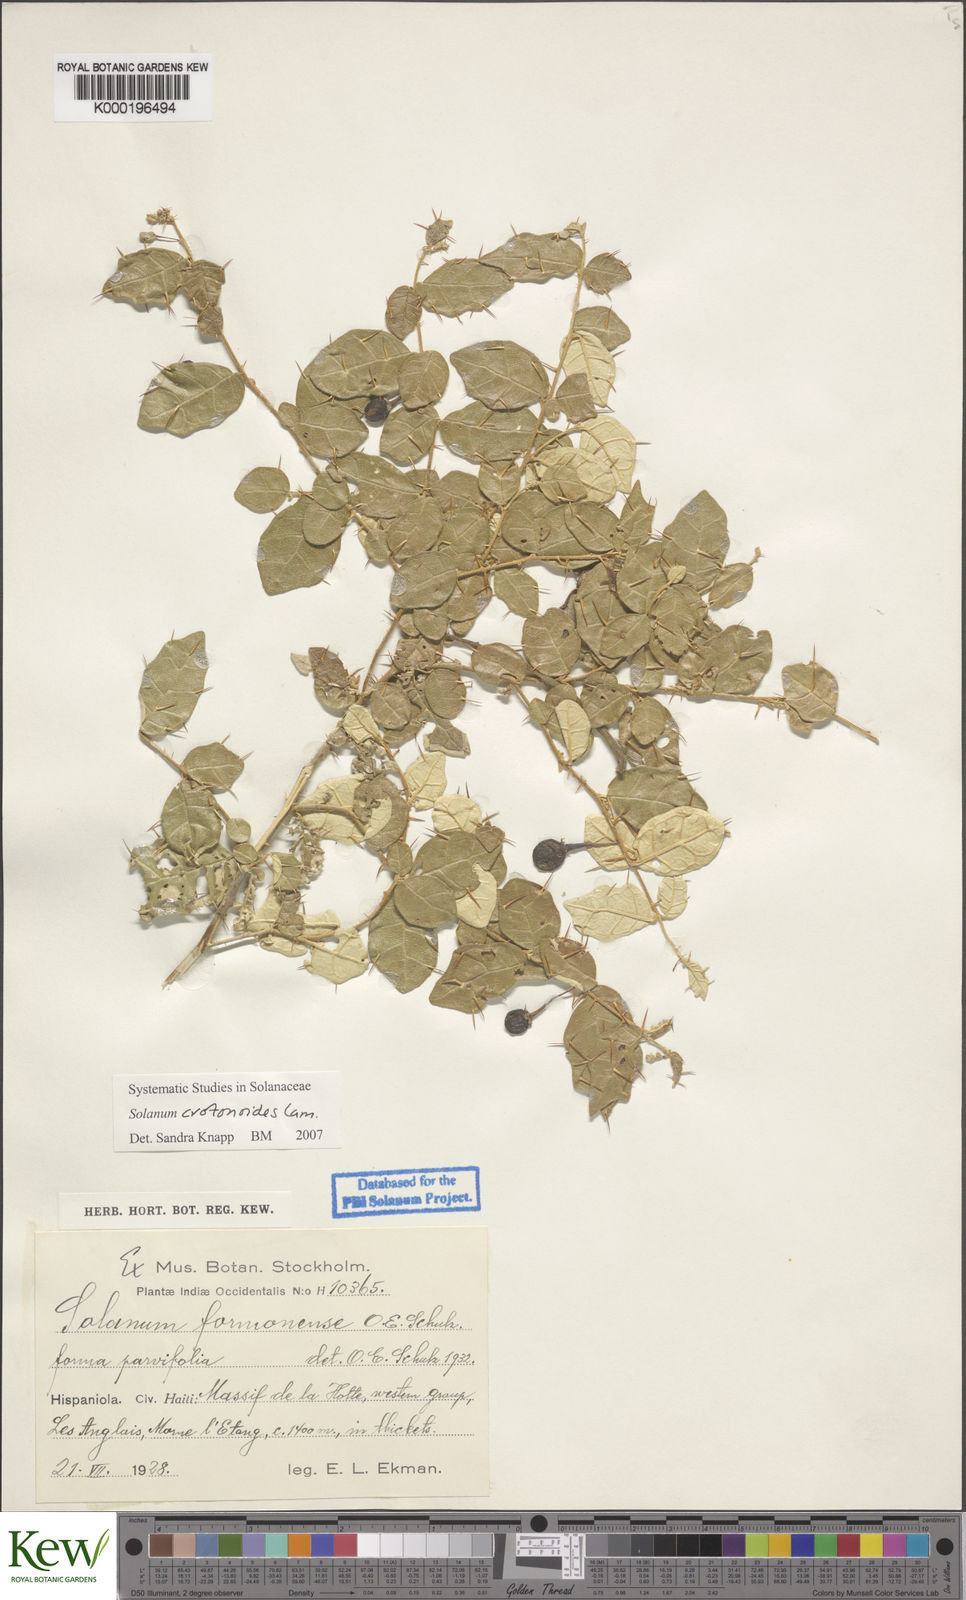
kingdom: Plantae
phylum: Tracheophyta
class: Magnoliopsida
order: Solanales
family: Solanaceae
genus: Solanum
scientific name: Solanum crotonoides
